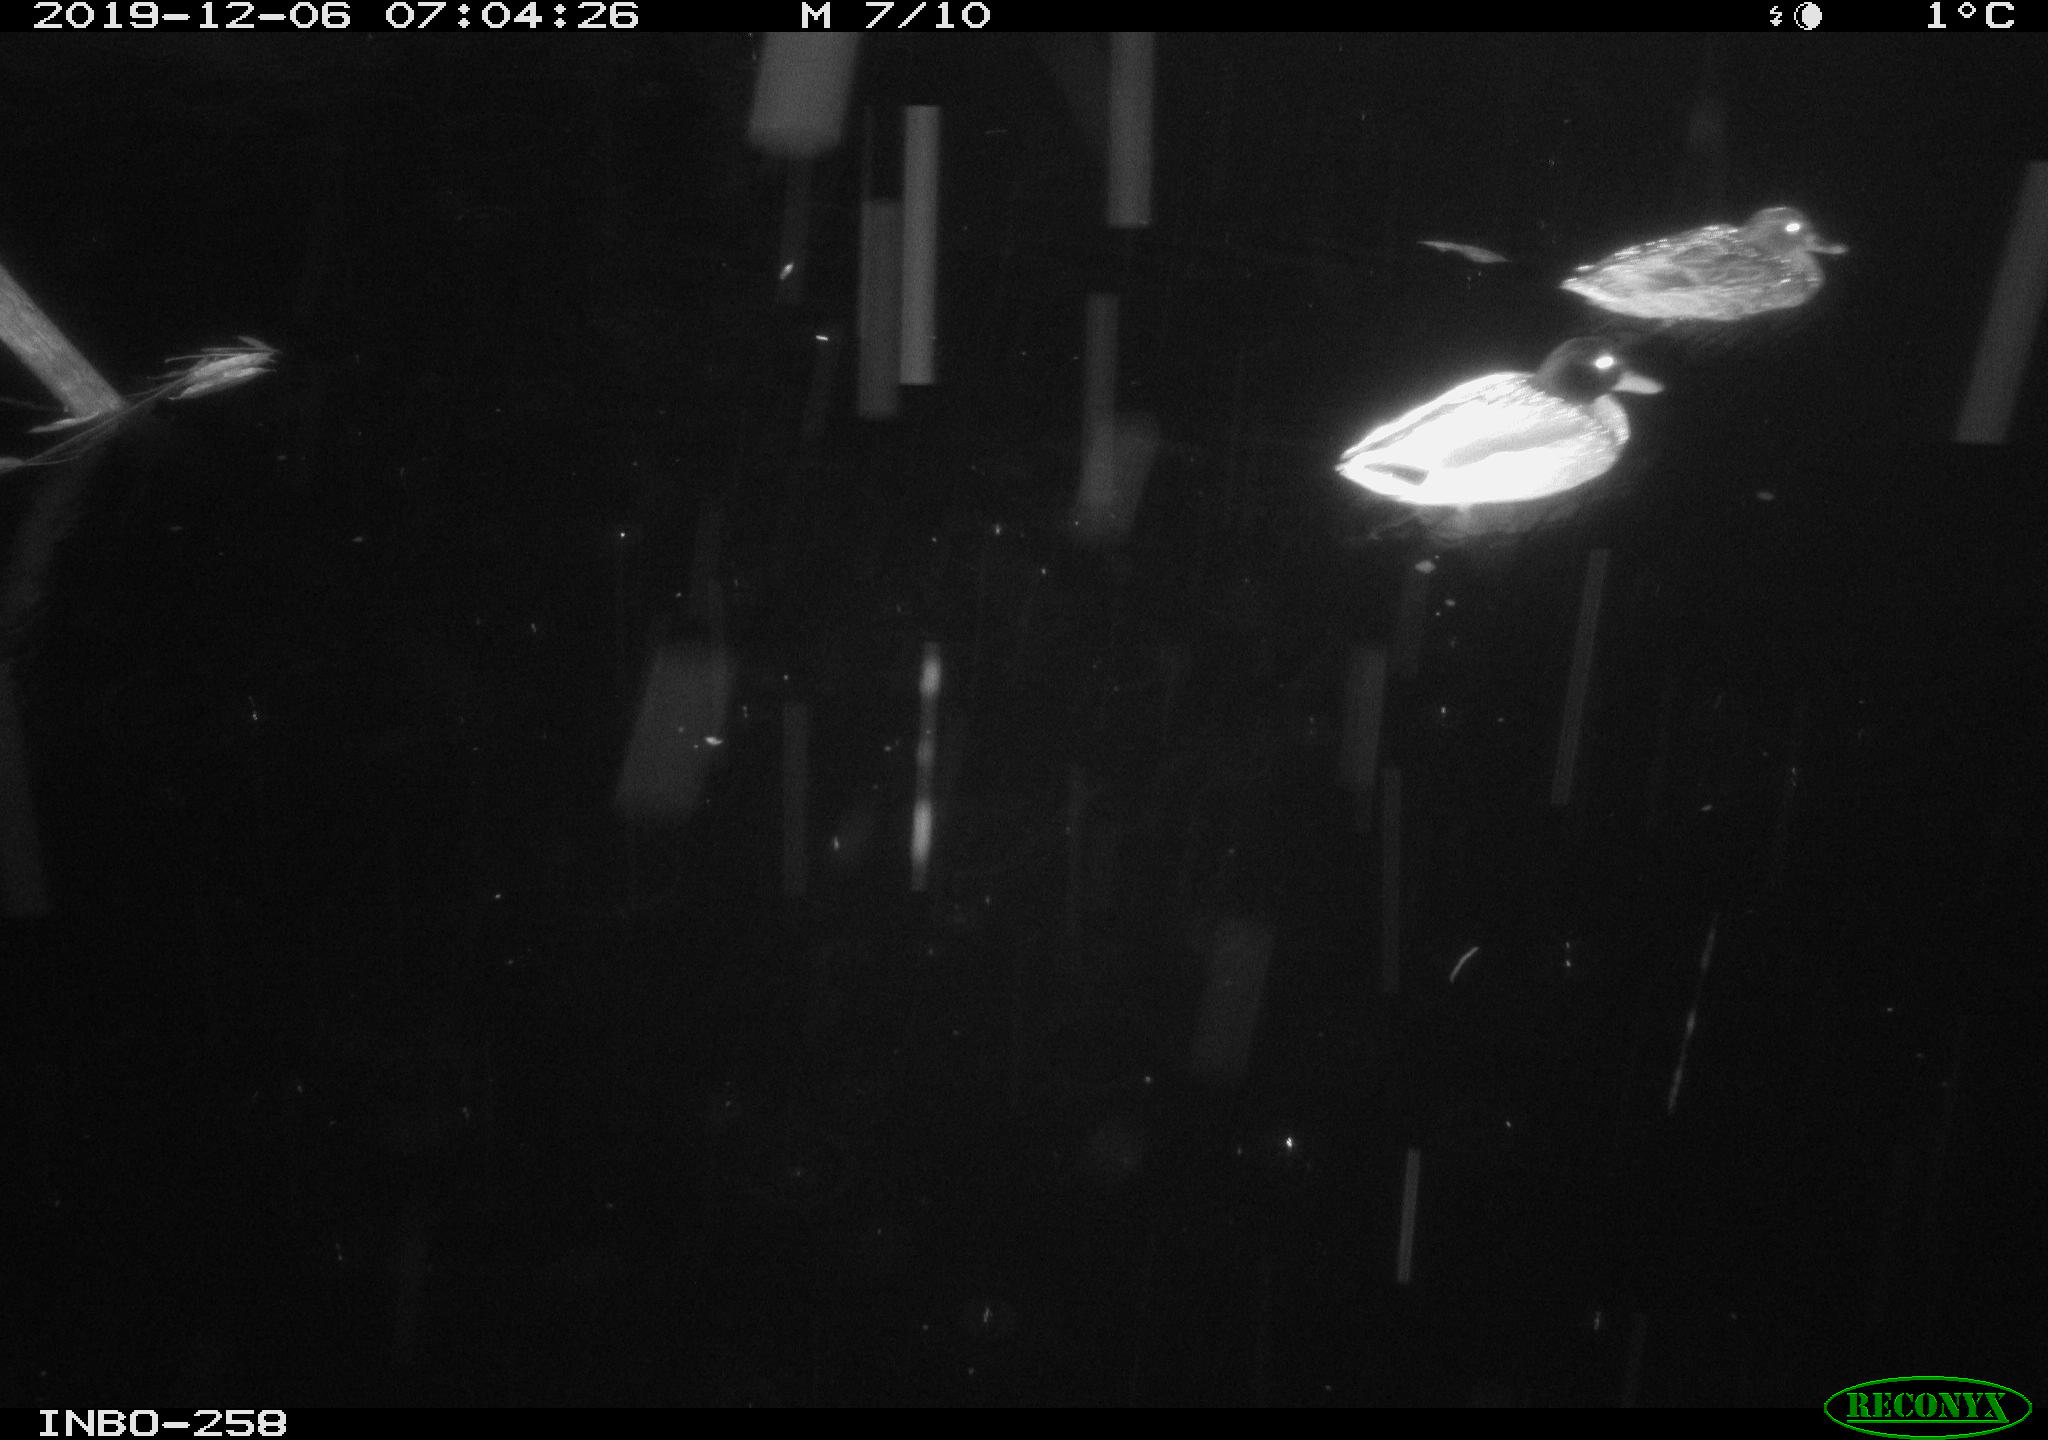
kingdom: Animalia
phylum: Chordata
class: Aves
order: Anseriformes
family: Anatidae
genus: Anas
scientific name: Anas platyrhynchos
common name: Mallard
